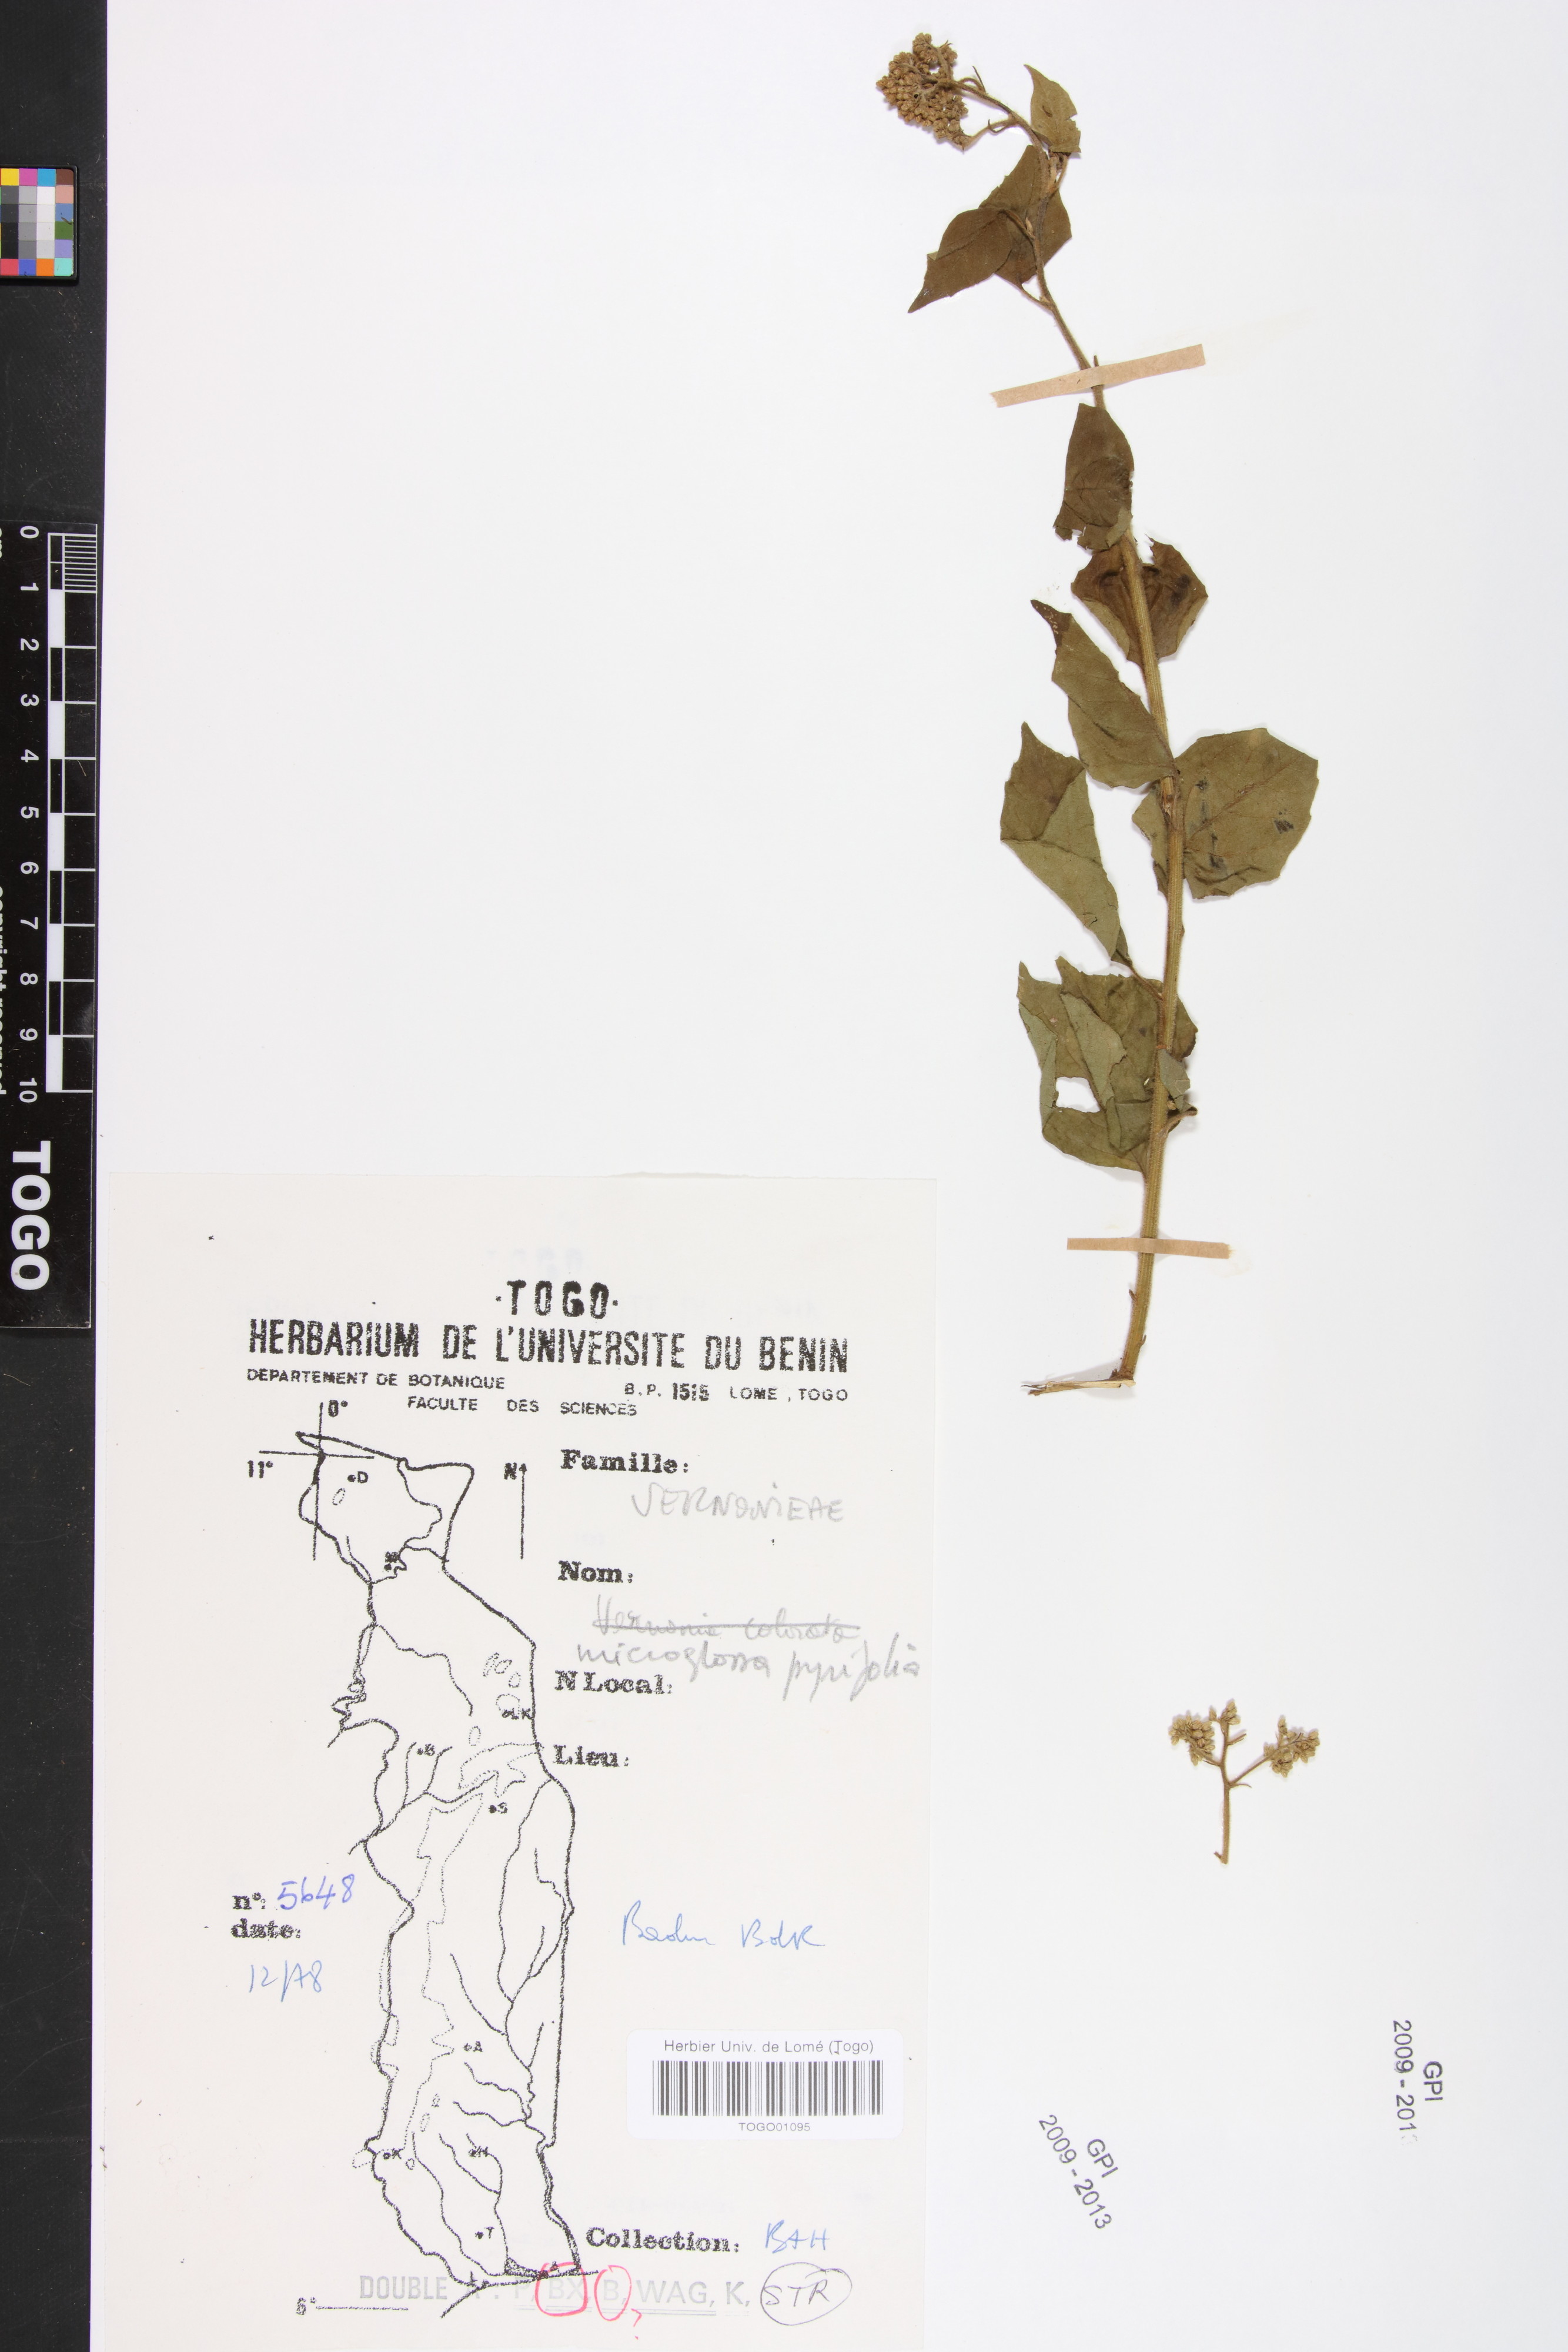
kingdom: Plantae
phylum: Tracheophyta
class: Magnoliopsida
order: Asterales
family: Asteraceae
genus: Microglossa
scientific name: Microglossa pyrifolia
